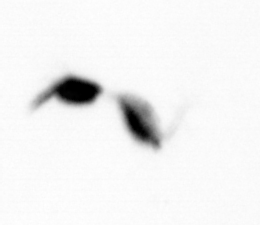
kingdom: Animalia
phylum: Arthropoda
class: Copepoda
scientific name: Copepoda
